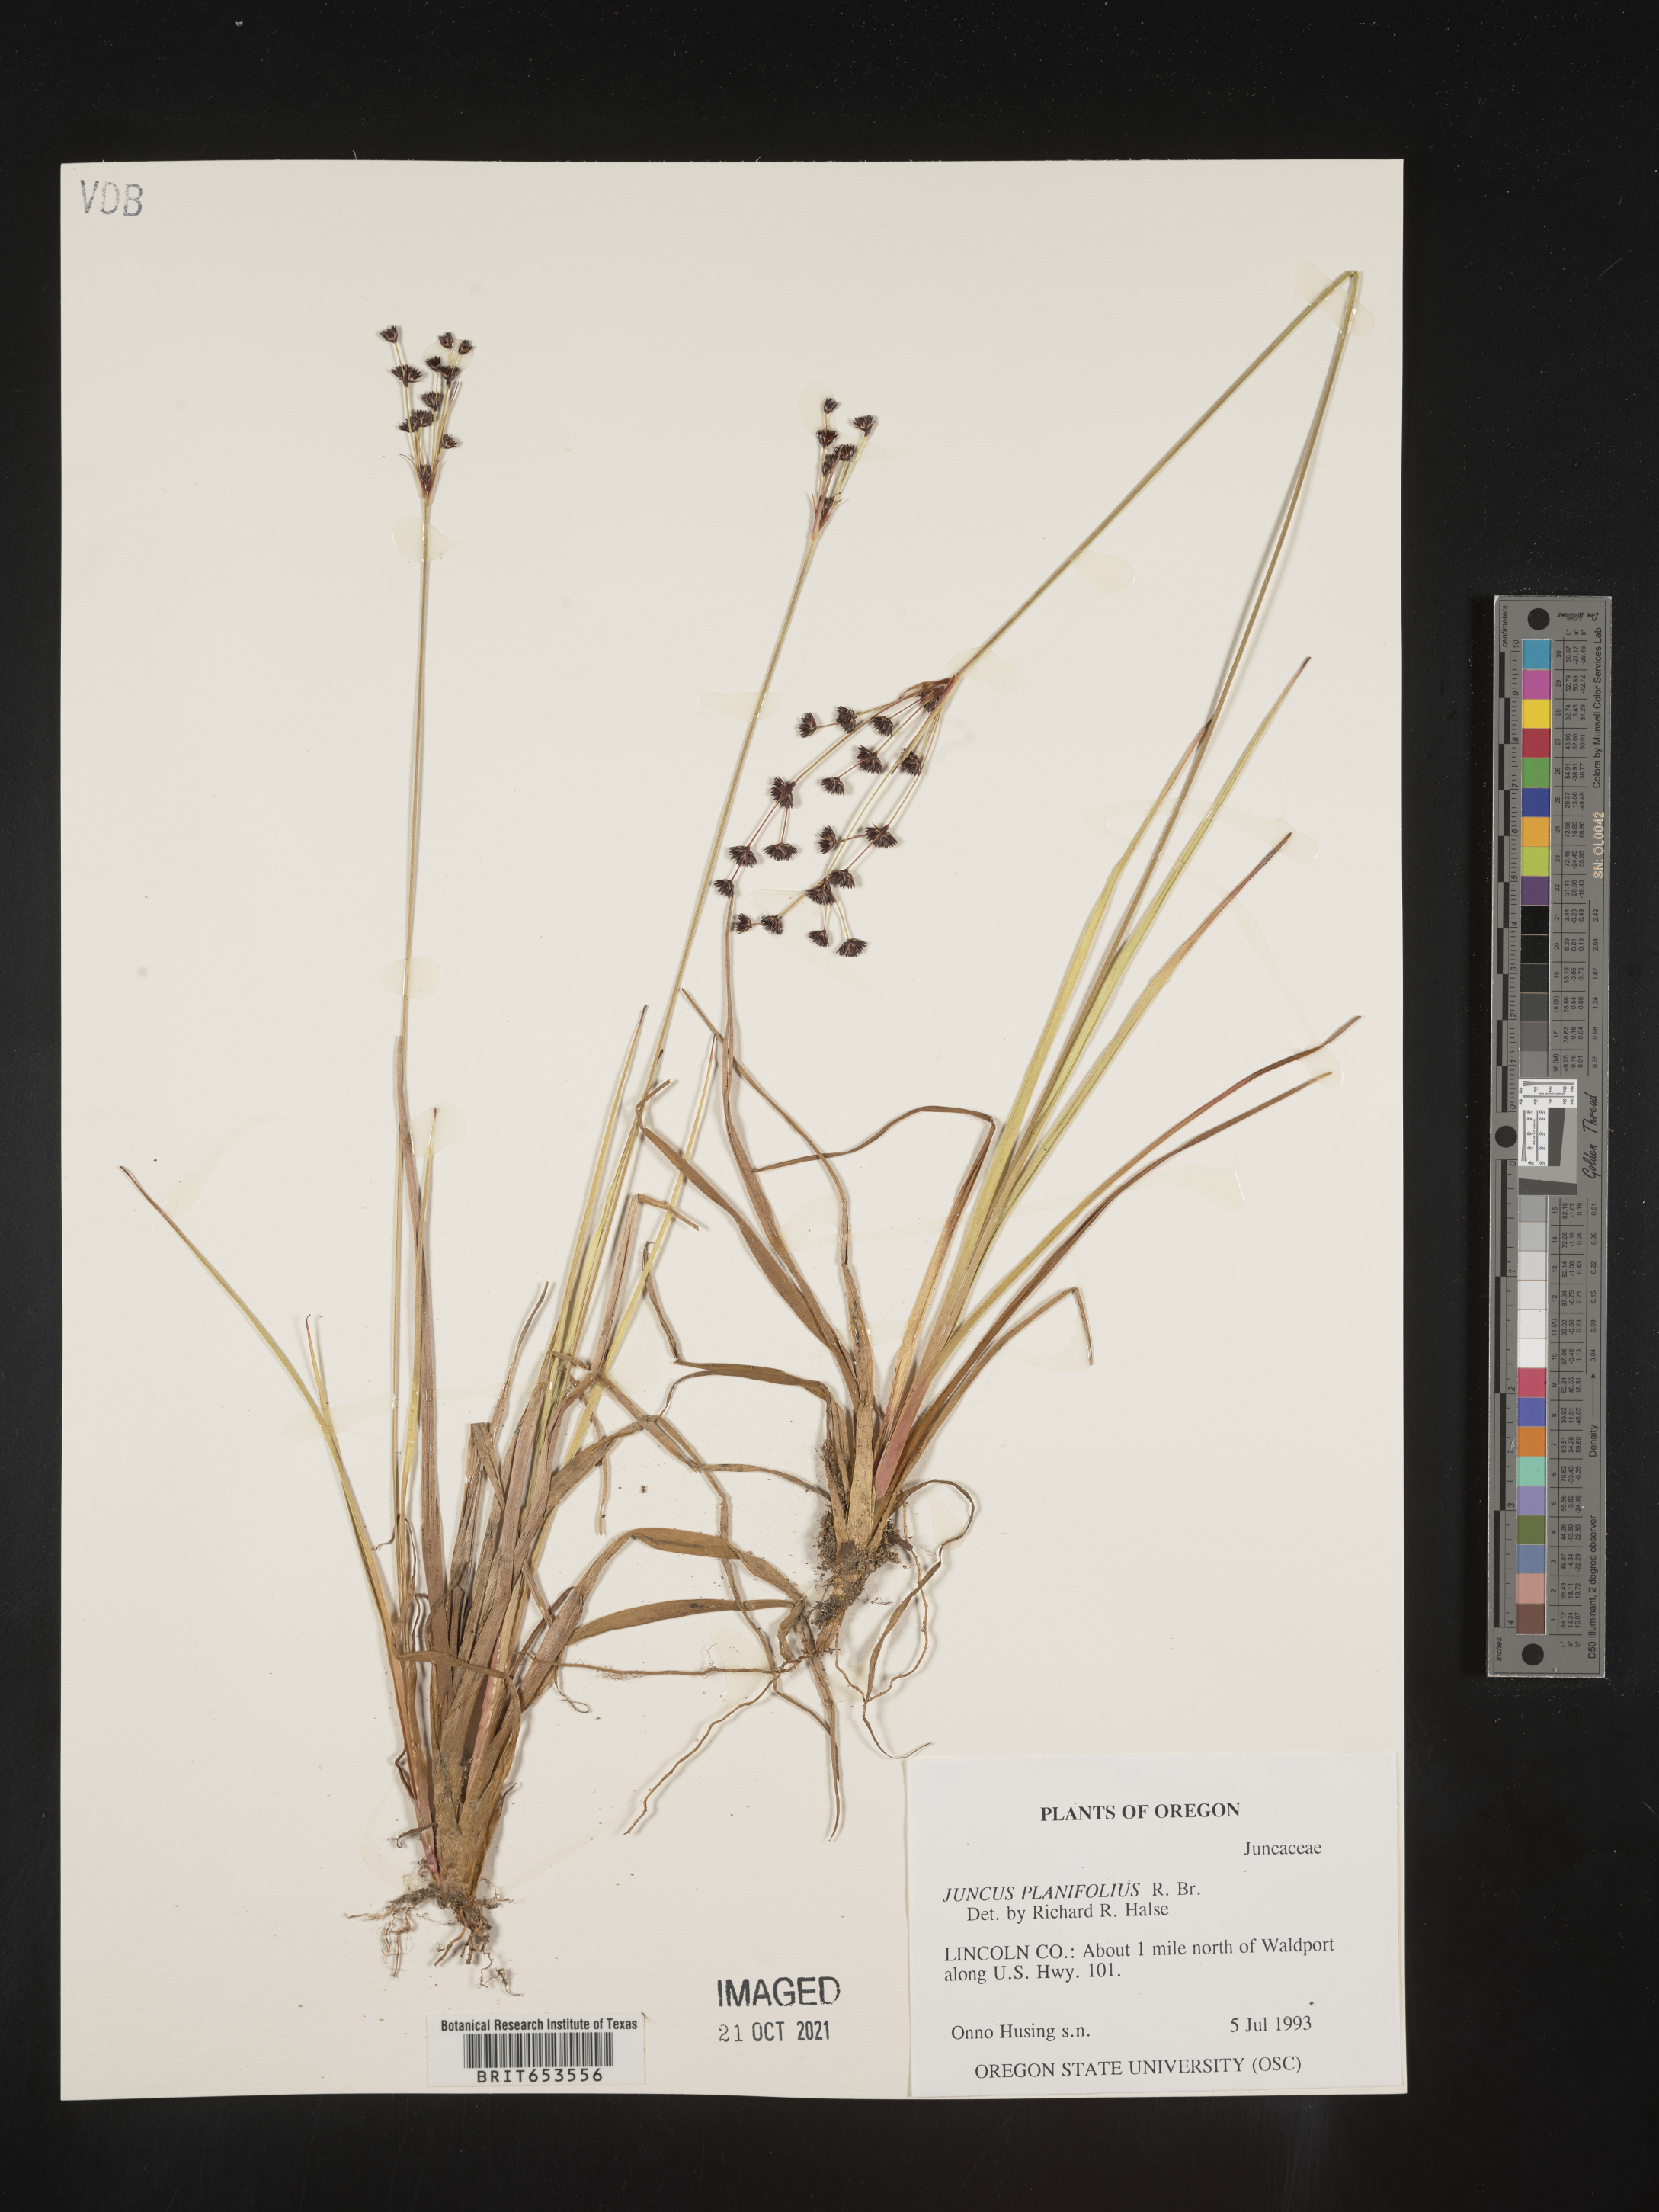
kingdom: Plantae
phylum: Tracheophyta
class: Liliopsida
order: Poales
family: Juncaceae
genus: Juncus
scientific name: Juncus planifolius
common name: Broadleaf rush
